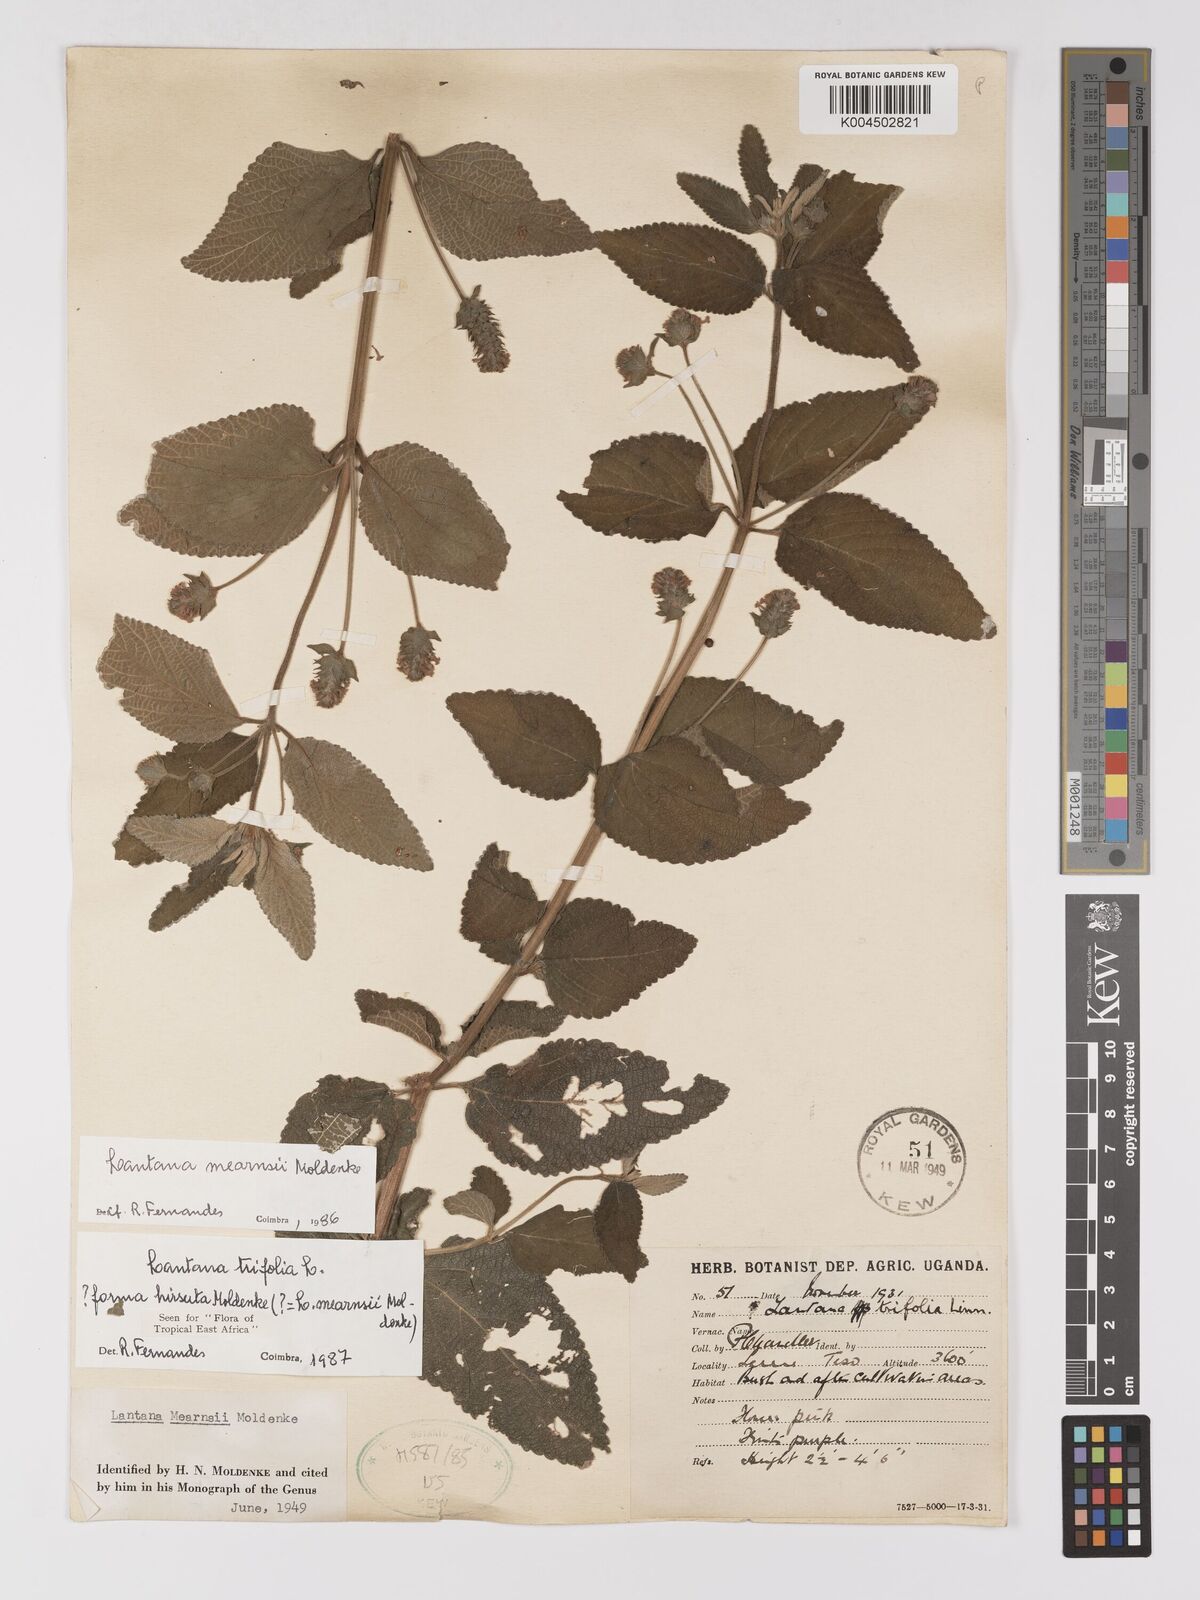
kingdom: Plantae
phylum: Tracheophyta
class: Magnoliopsida
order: Lamiales
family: Verbenaceae
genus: Lantana
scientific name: Lantana trifolia
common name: Sweet-sage
